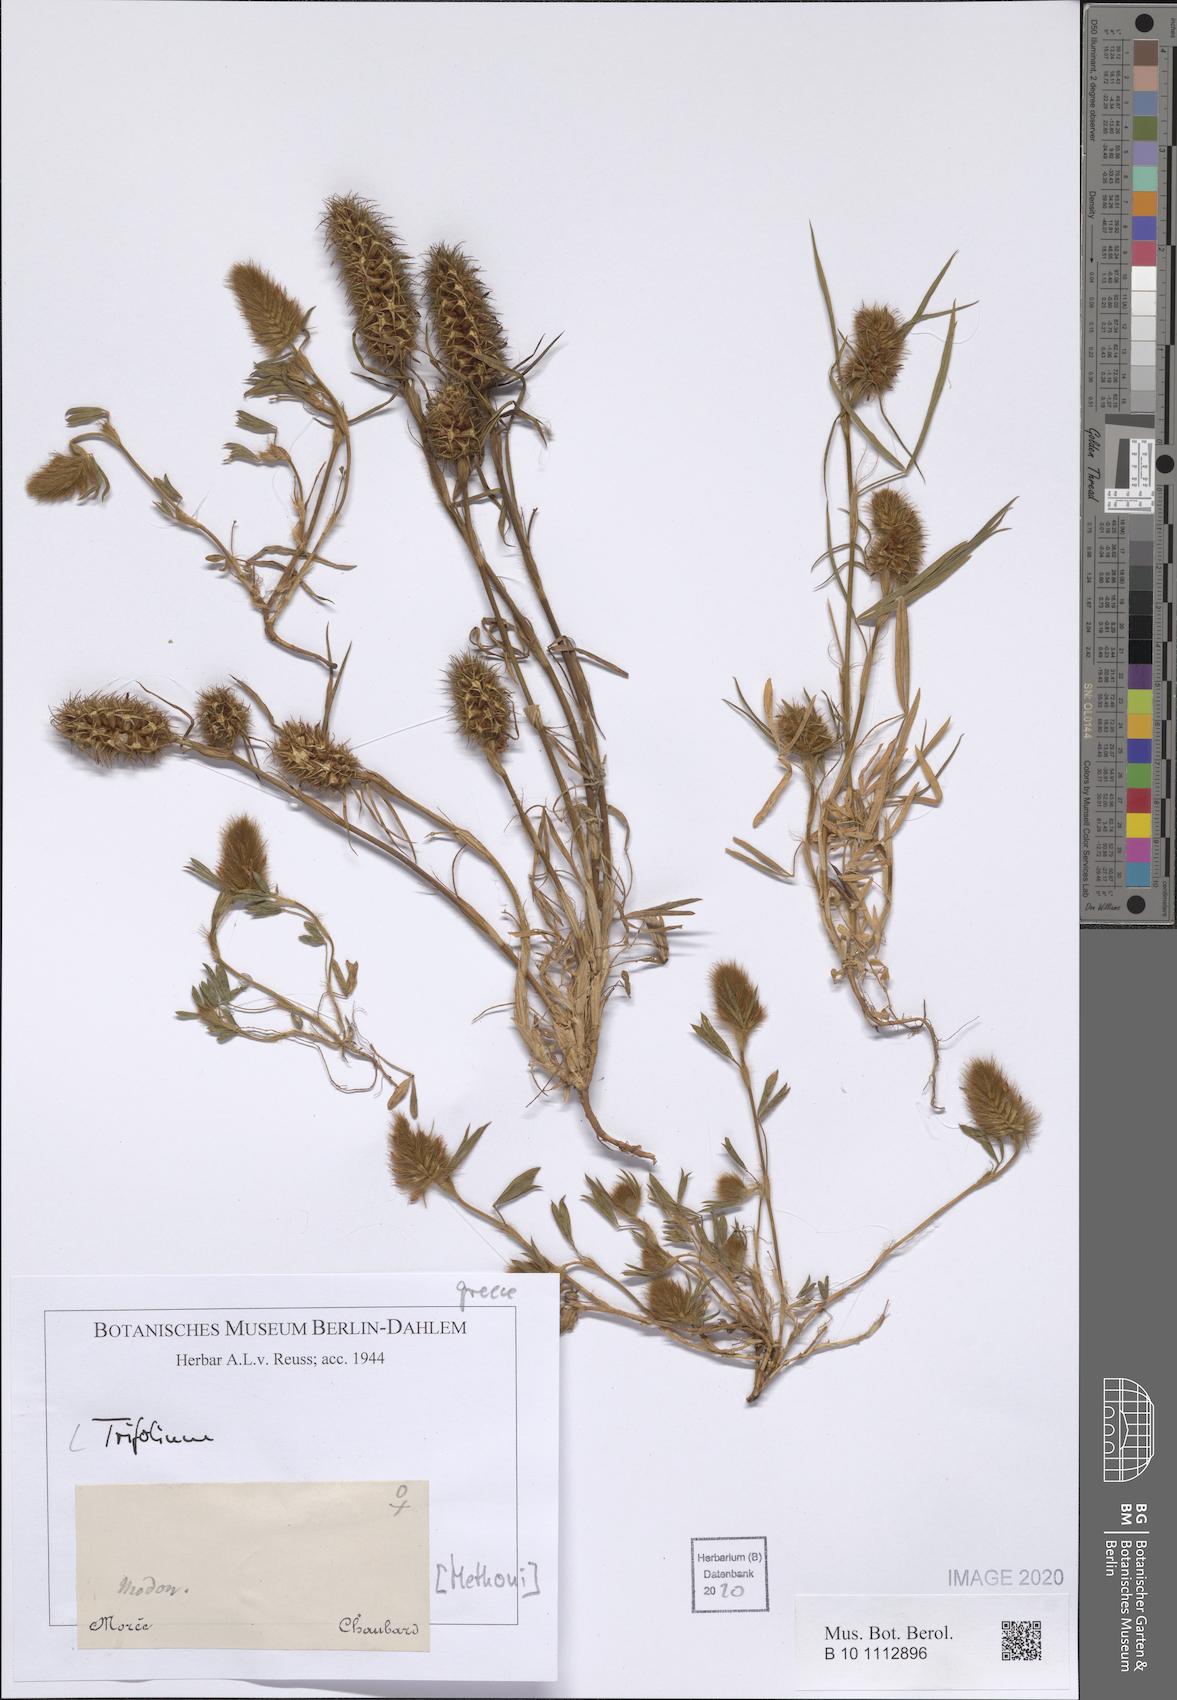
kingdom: Plantae
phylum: Tracheophyta
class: Magnoliopsida
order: Fabales
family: Fabaceae
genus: Trifolium
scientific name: Trifolium
